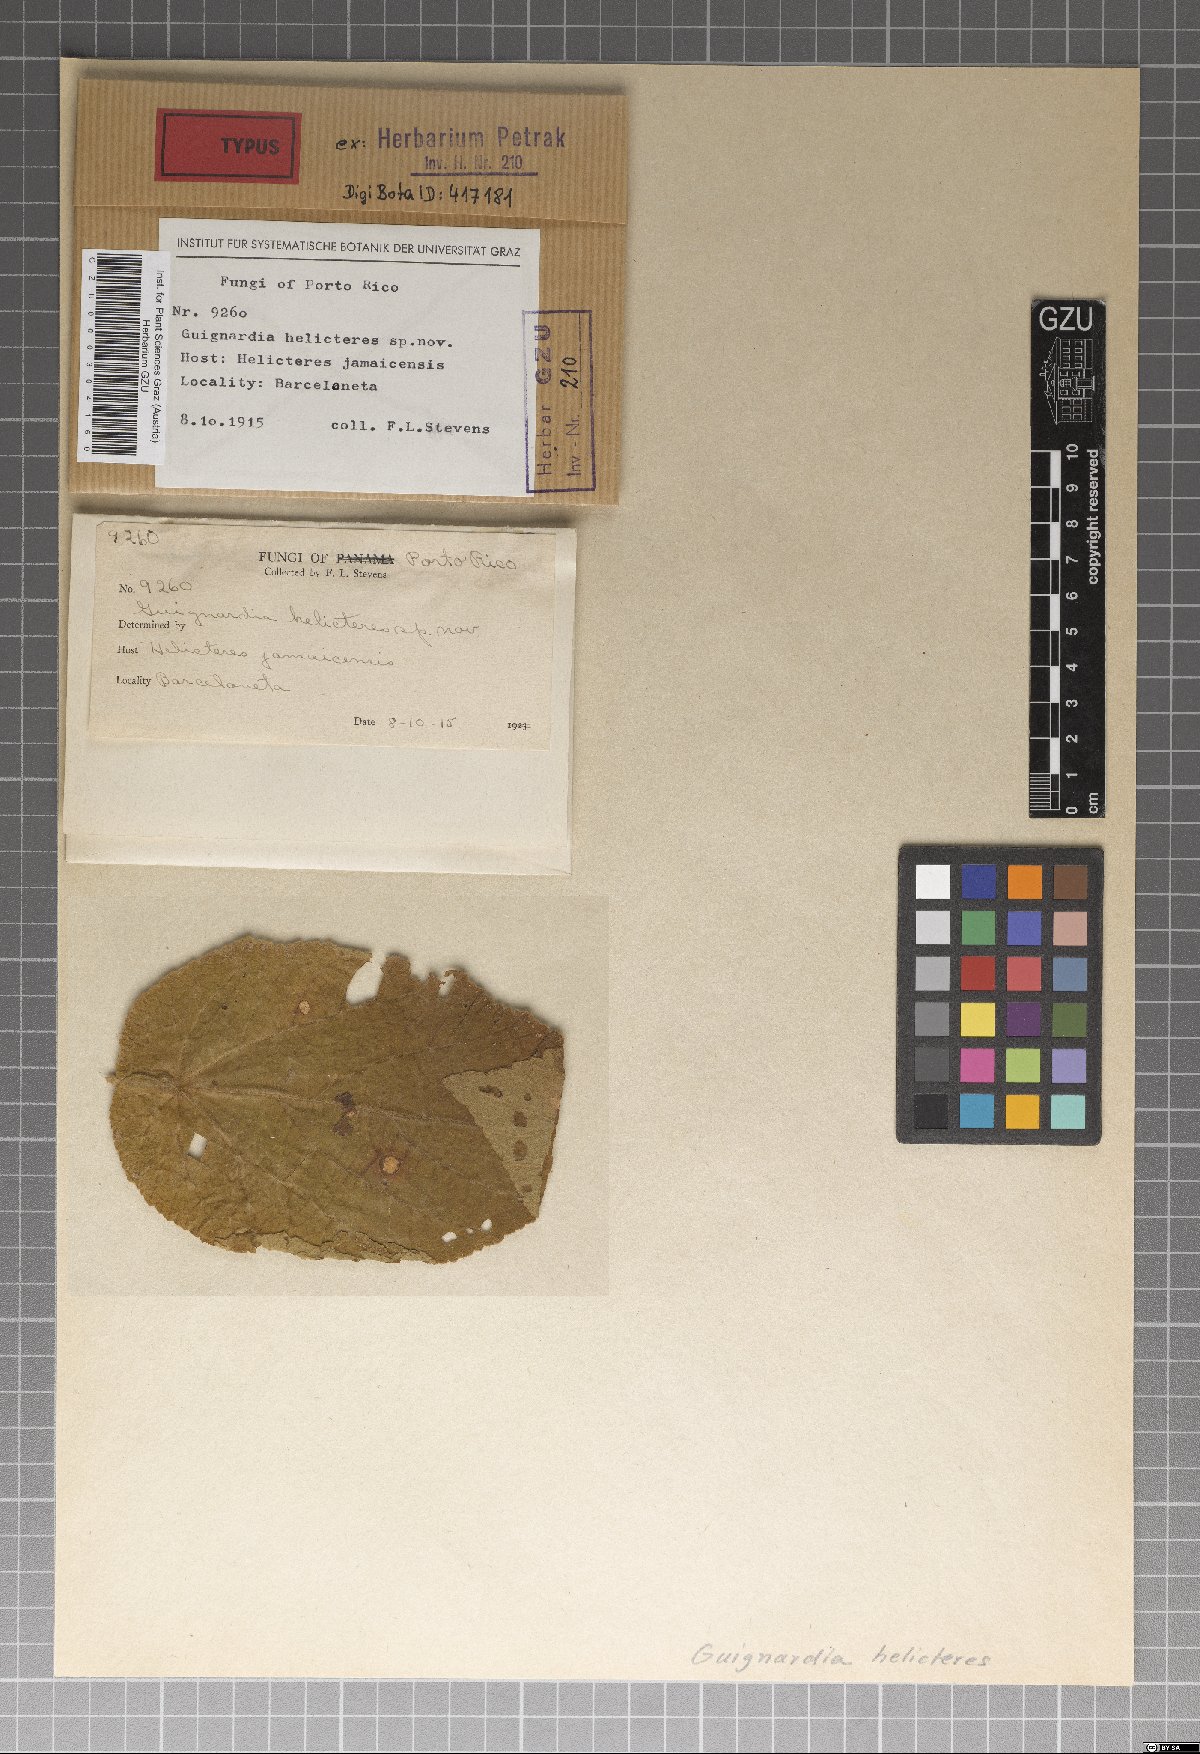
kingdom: Fungi
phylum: Ascomycota
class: Dothideomycetes
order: Botryosphaeriales
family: Botryosphaeriaceae
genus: Melanops
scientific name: Melanops helicteres
